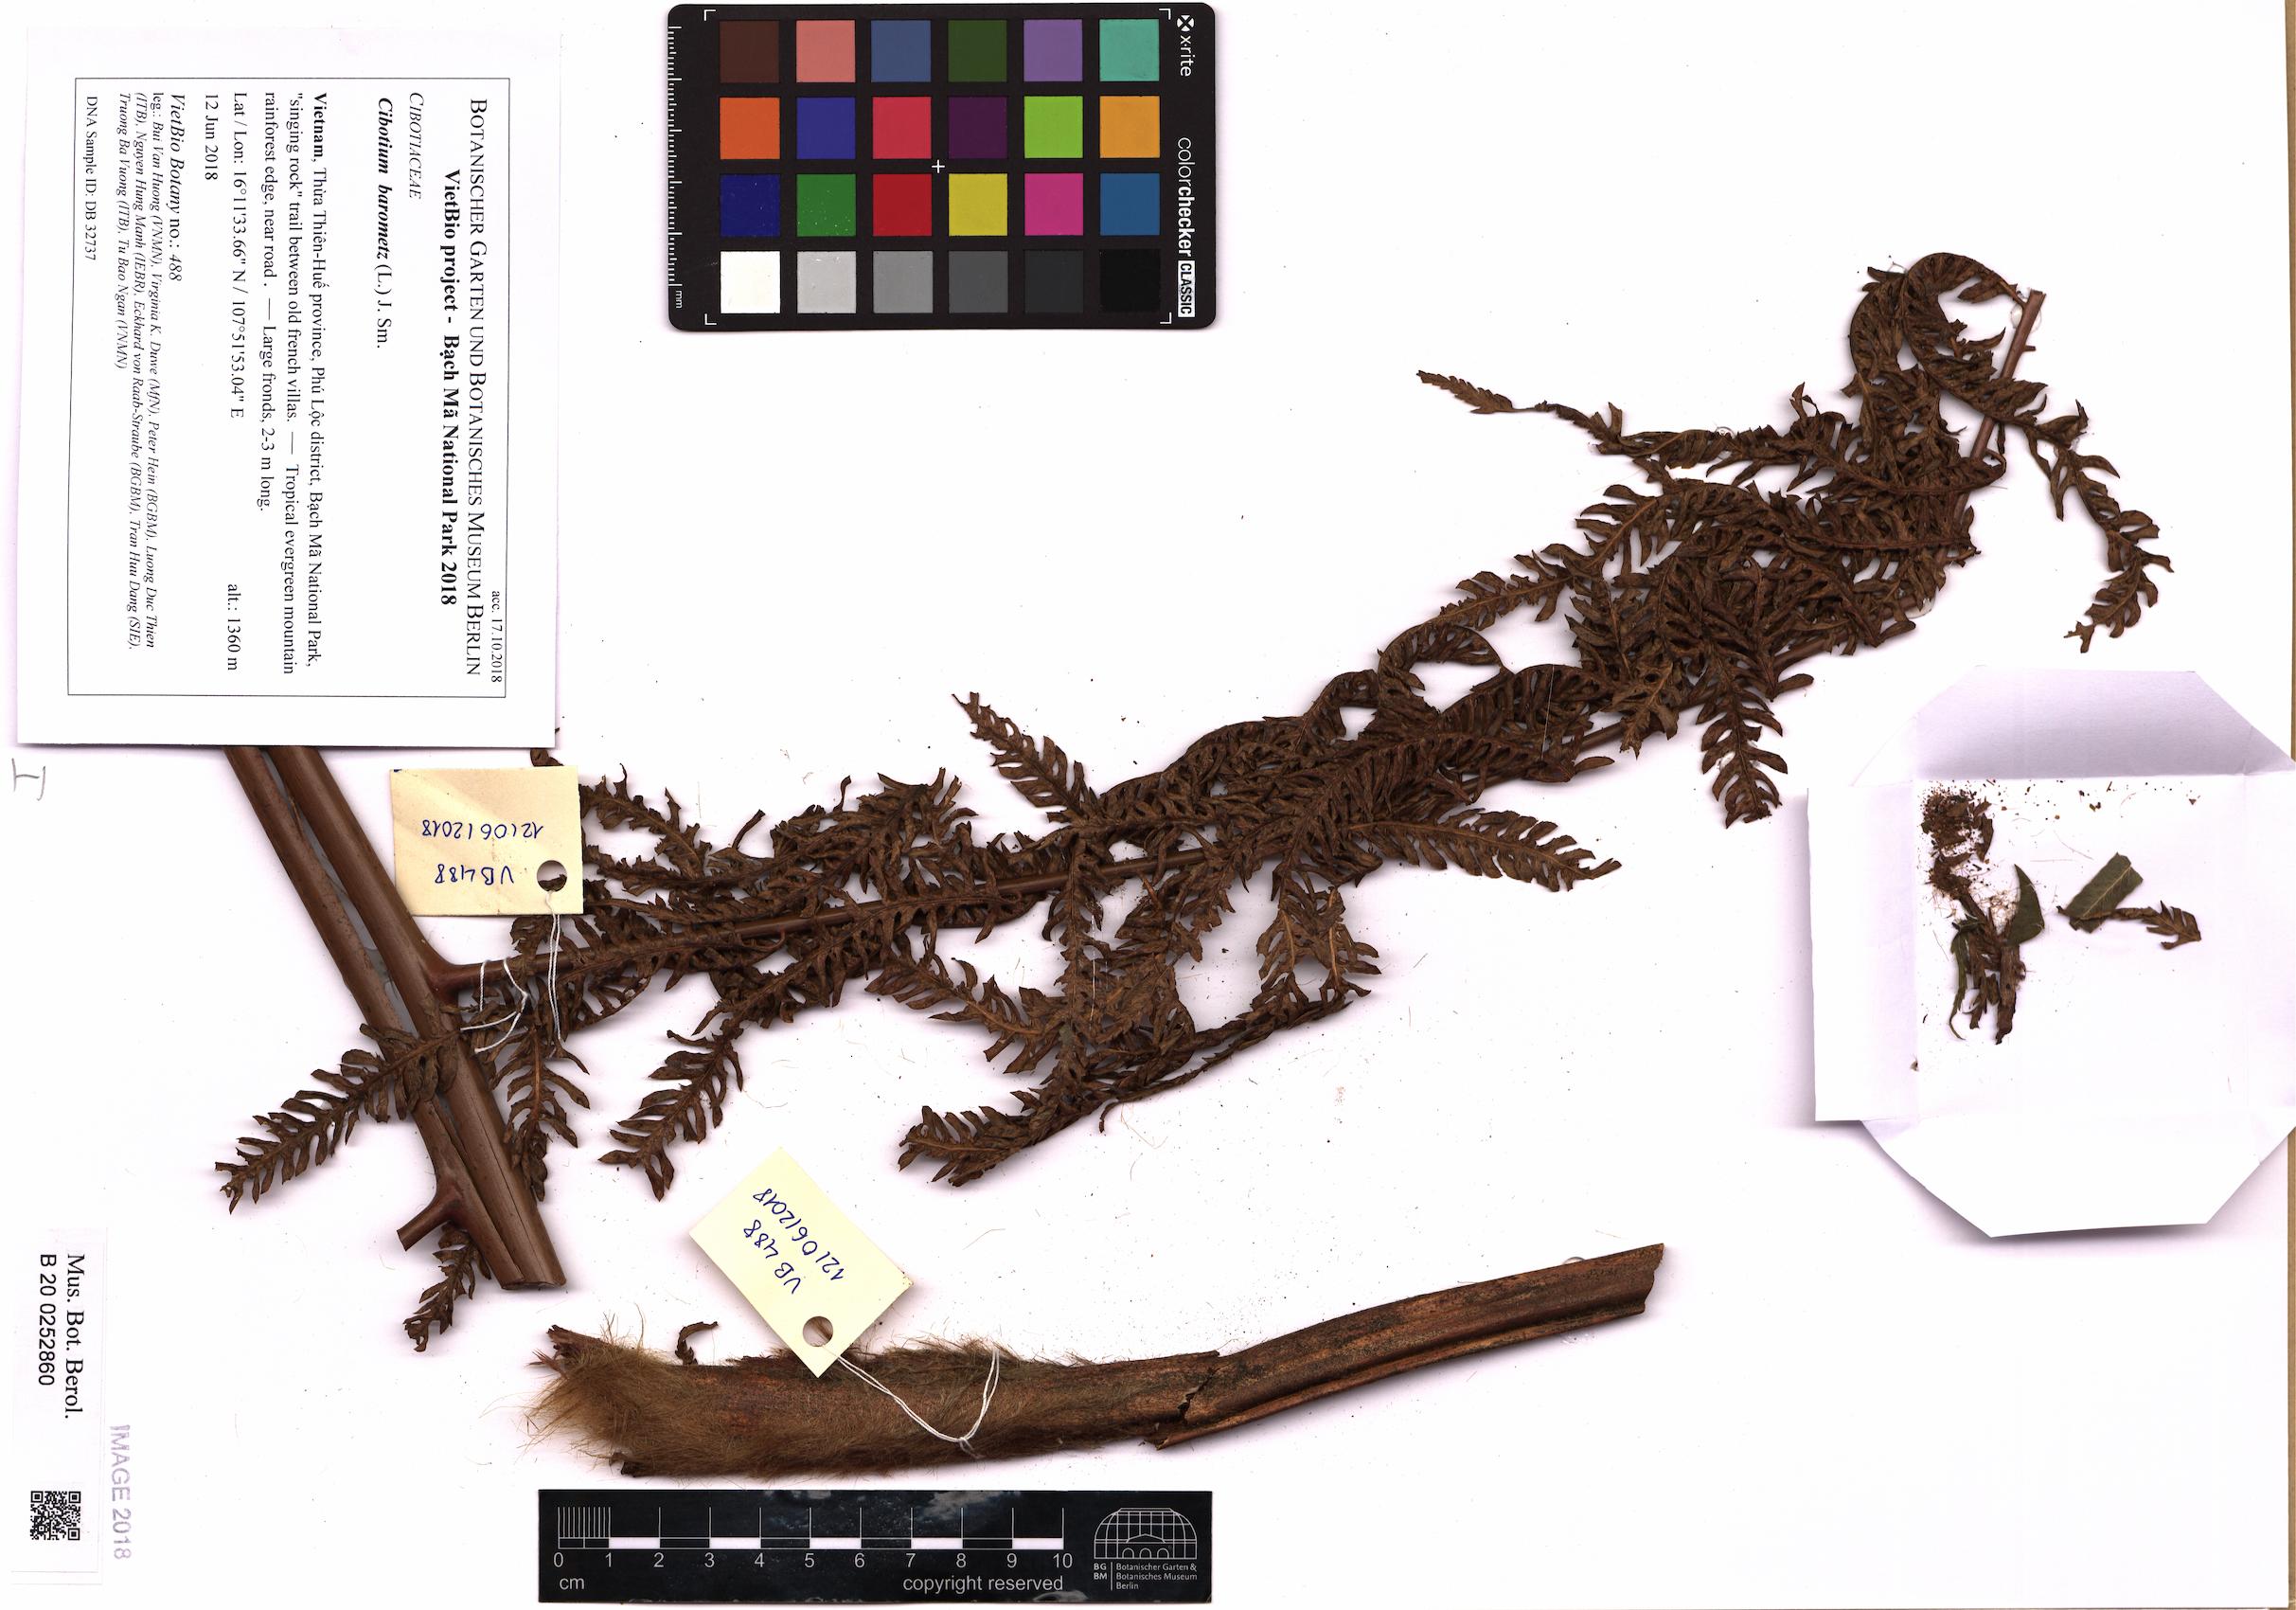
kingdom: Plantae
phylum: Tracheophyta
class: Polypodiopsida
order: Cyatheales
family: Cibotiaceae
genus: Cibotium
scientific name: Cibotium barometz
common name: Scythian-lamb
